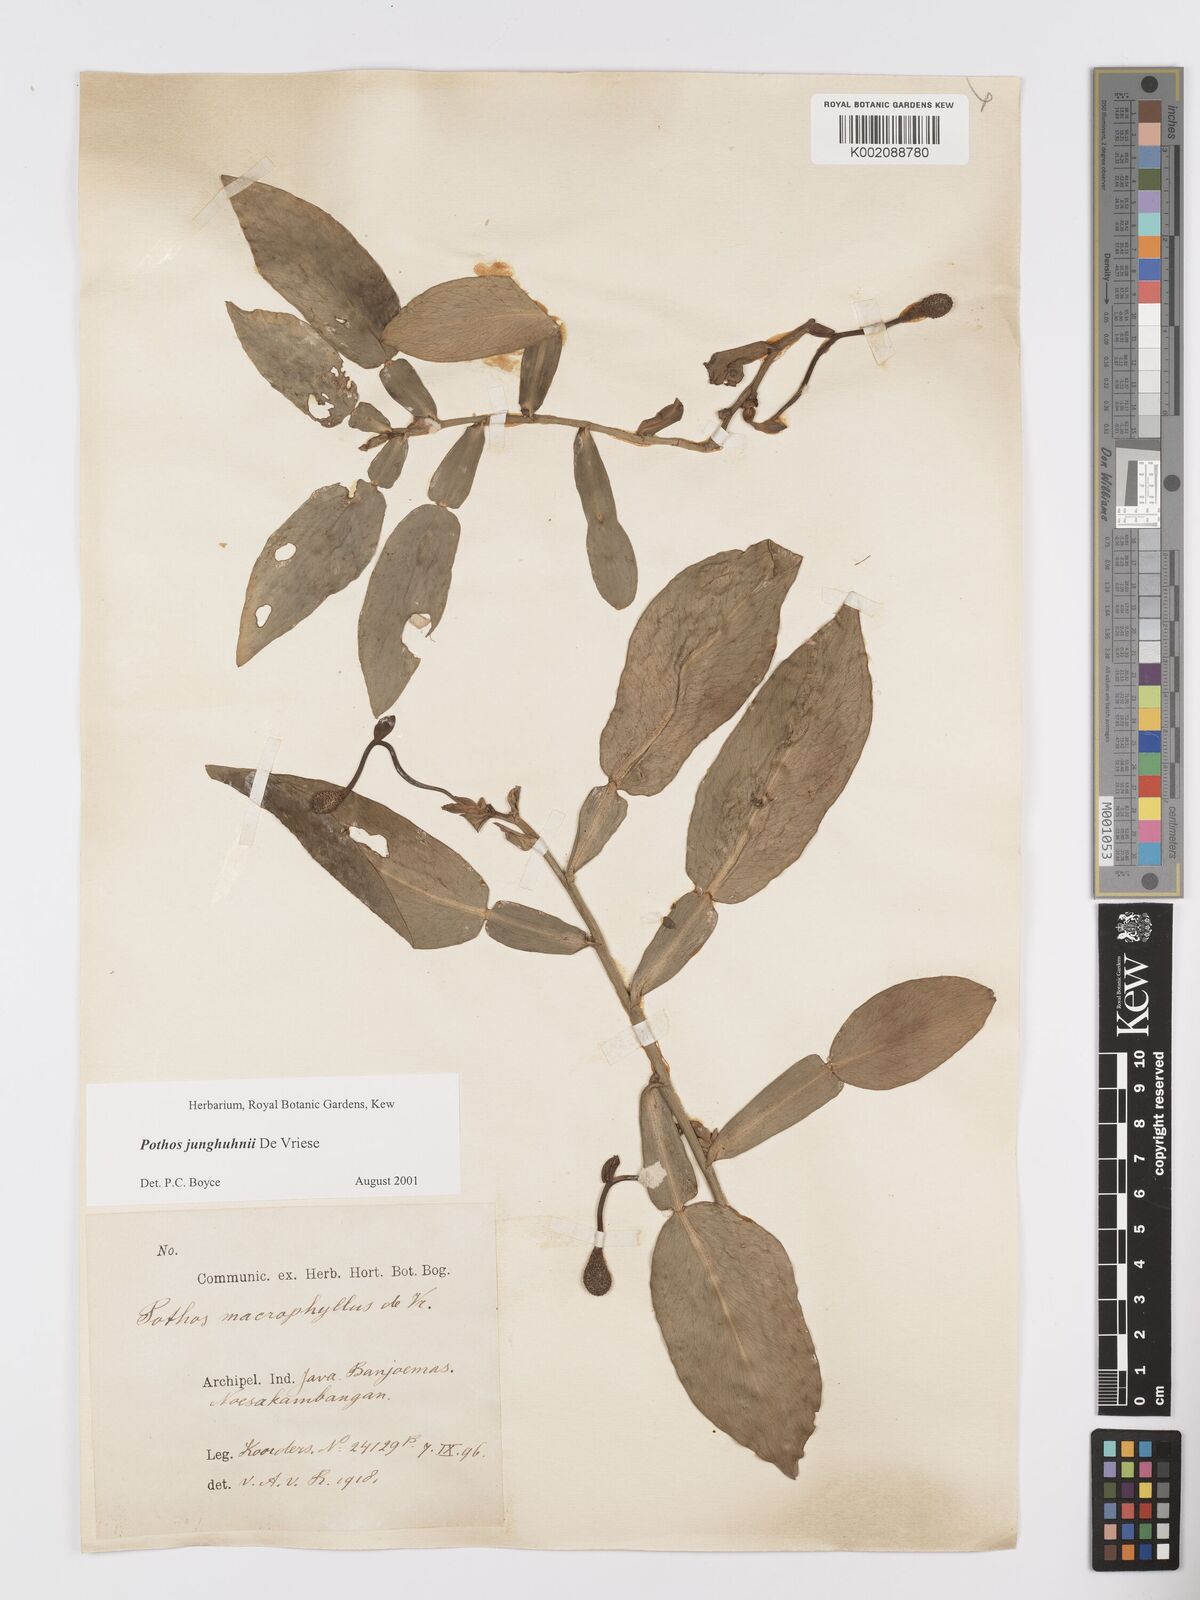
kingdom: Plantae
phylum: Tracheophyta
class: Liliopsida
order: Alismatales
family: Araceae
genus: Pothos
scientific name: Pothos junghuhnii
